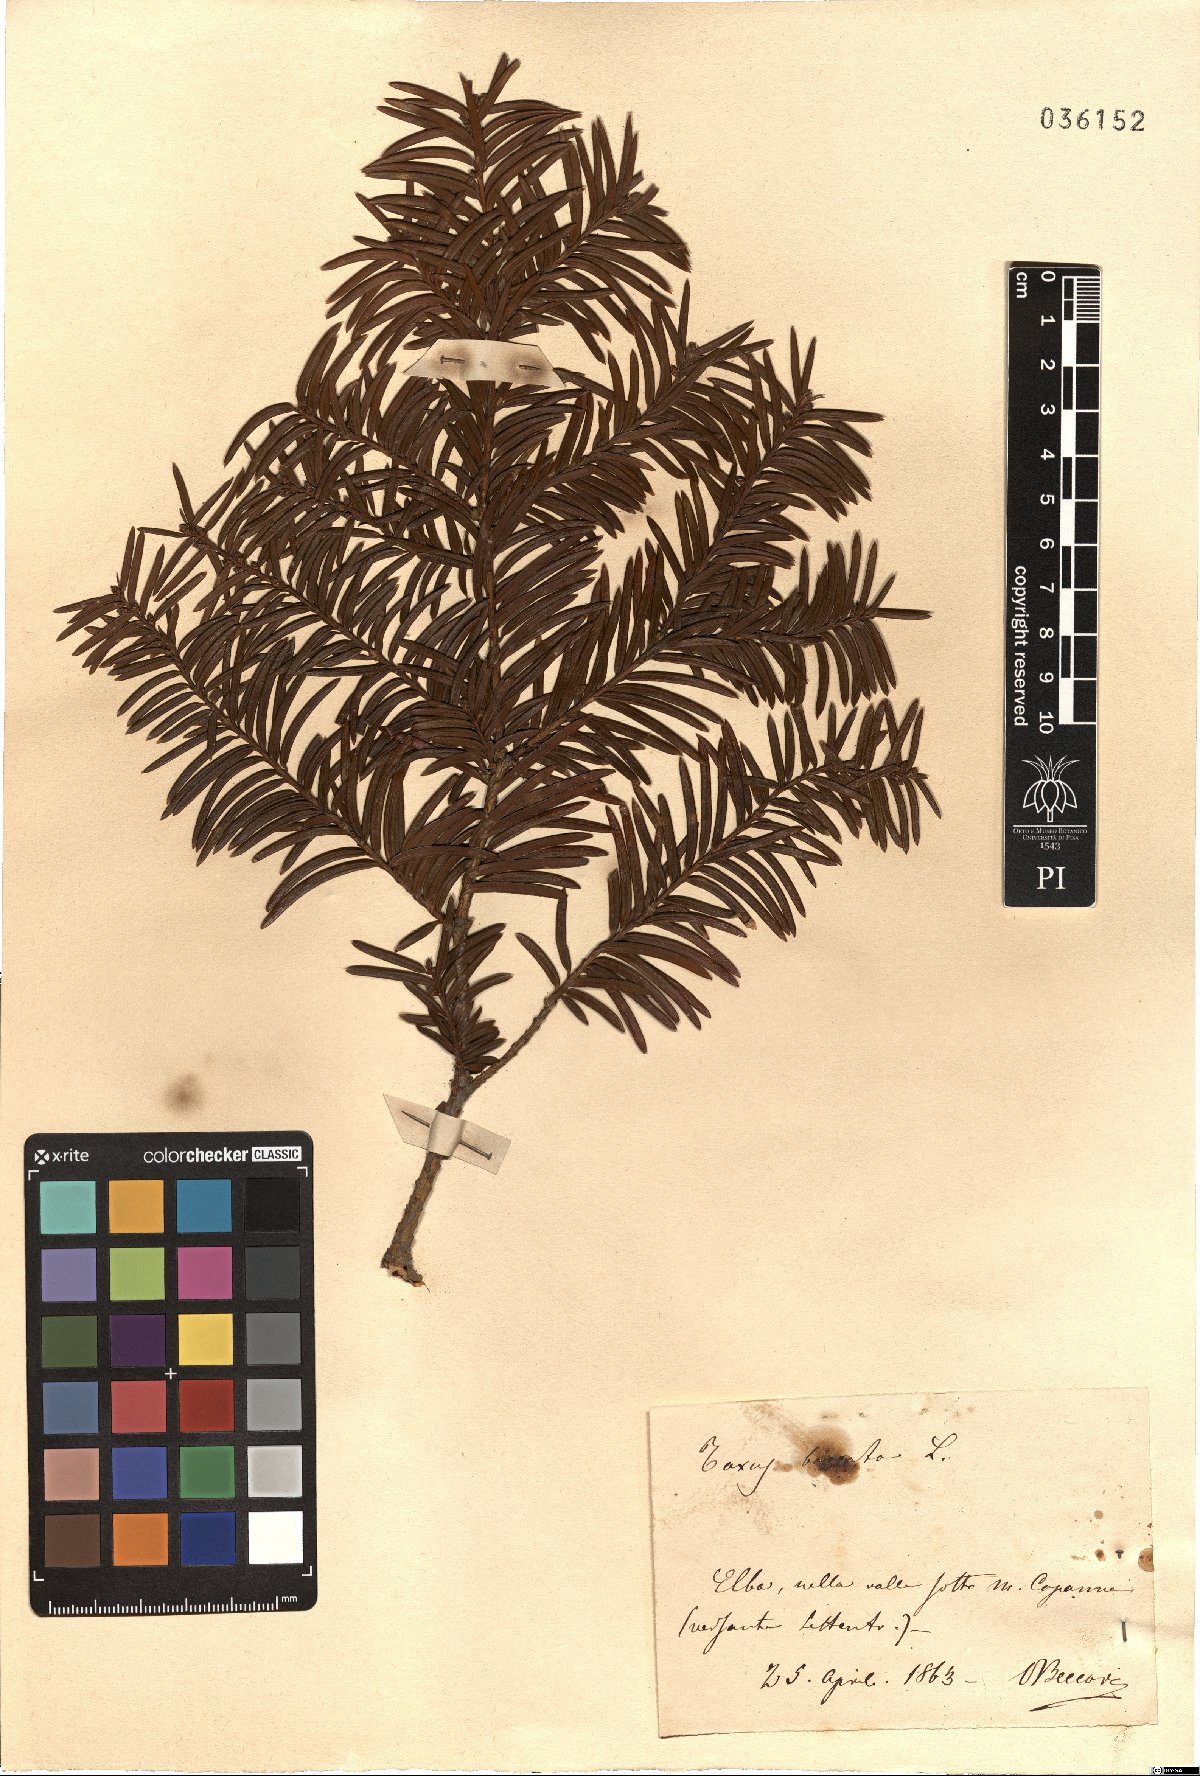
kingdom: Plantae
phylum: Tracheophyta
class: Pinopsida
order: Pinales
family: Taxaceae
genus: Taxus
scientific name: Taxus baccata
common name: Yew
